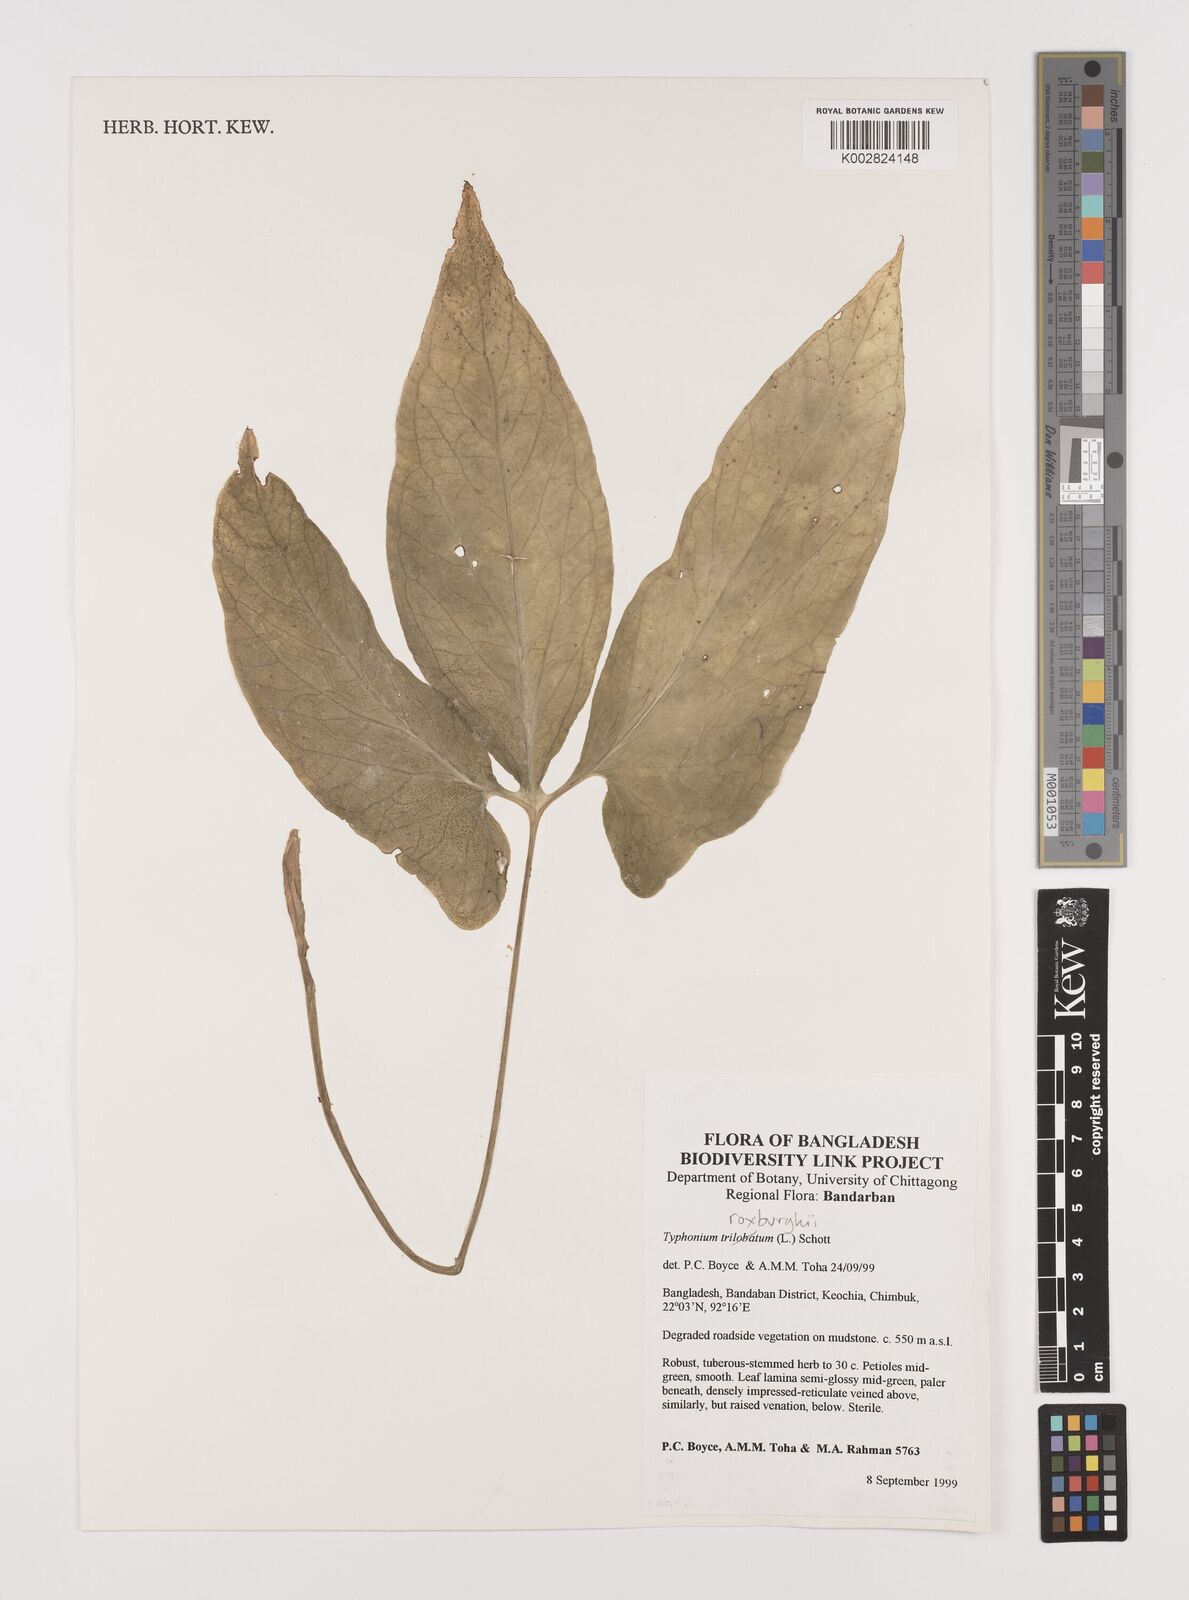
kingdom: Plantae
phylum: Tracheophyta
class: Liliopsida
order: Alismatales
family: Araceae
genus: Typhonium
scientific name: Typhonium roxburghii
